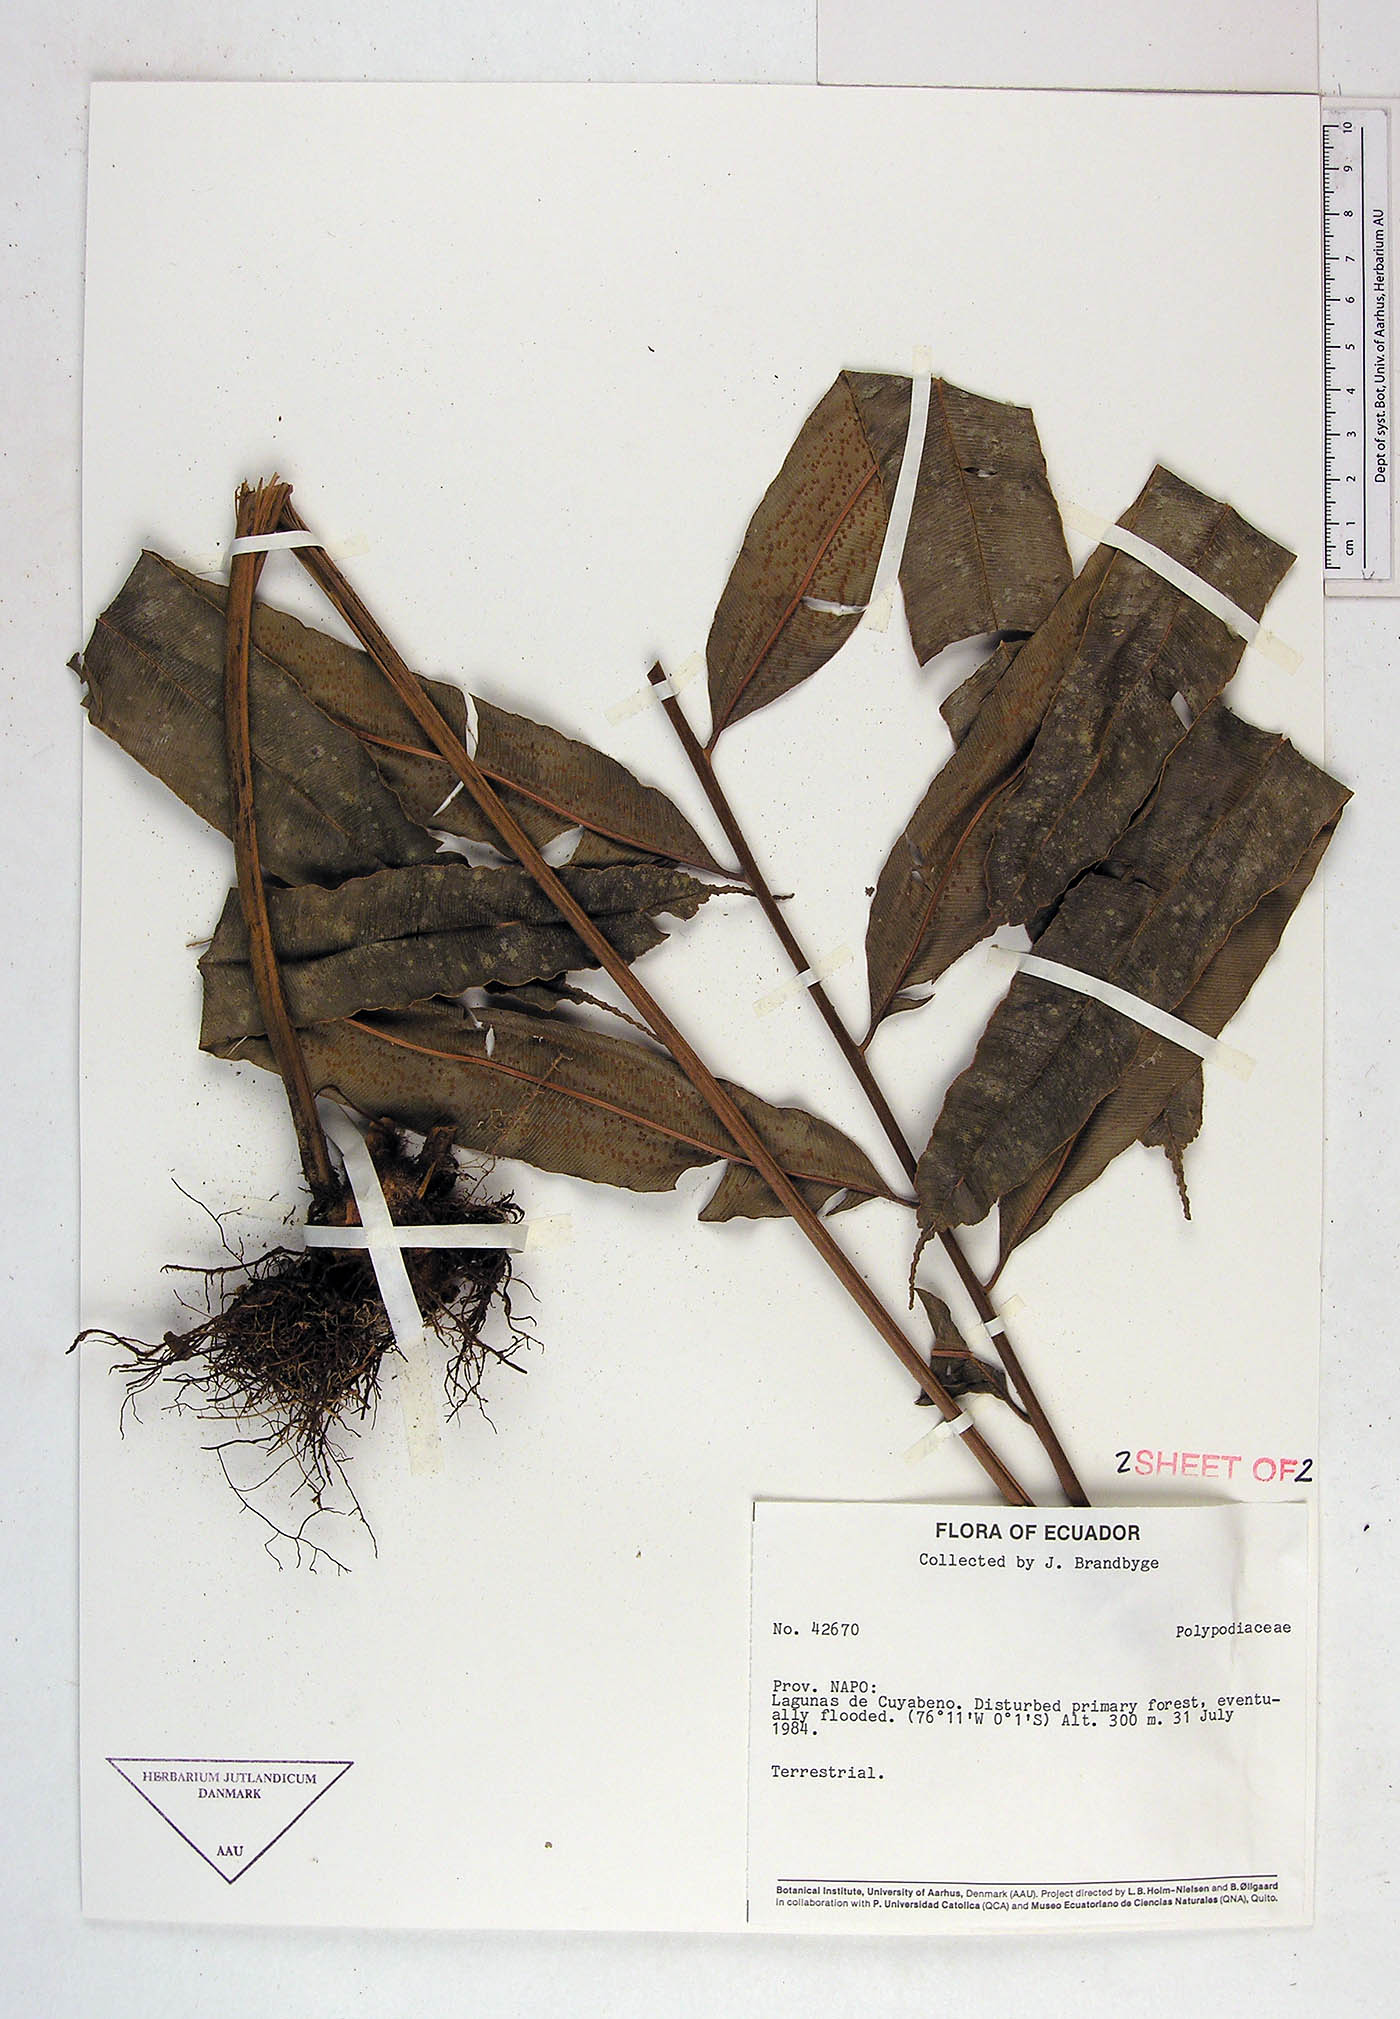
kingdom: Plantae
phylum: Tracheophyta
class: Polypodiopsida
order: Cyatheales
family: Metaxyaceae
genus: Metaxya
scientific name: Metaxya parkeri
